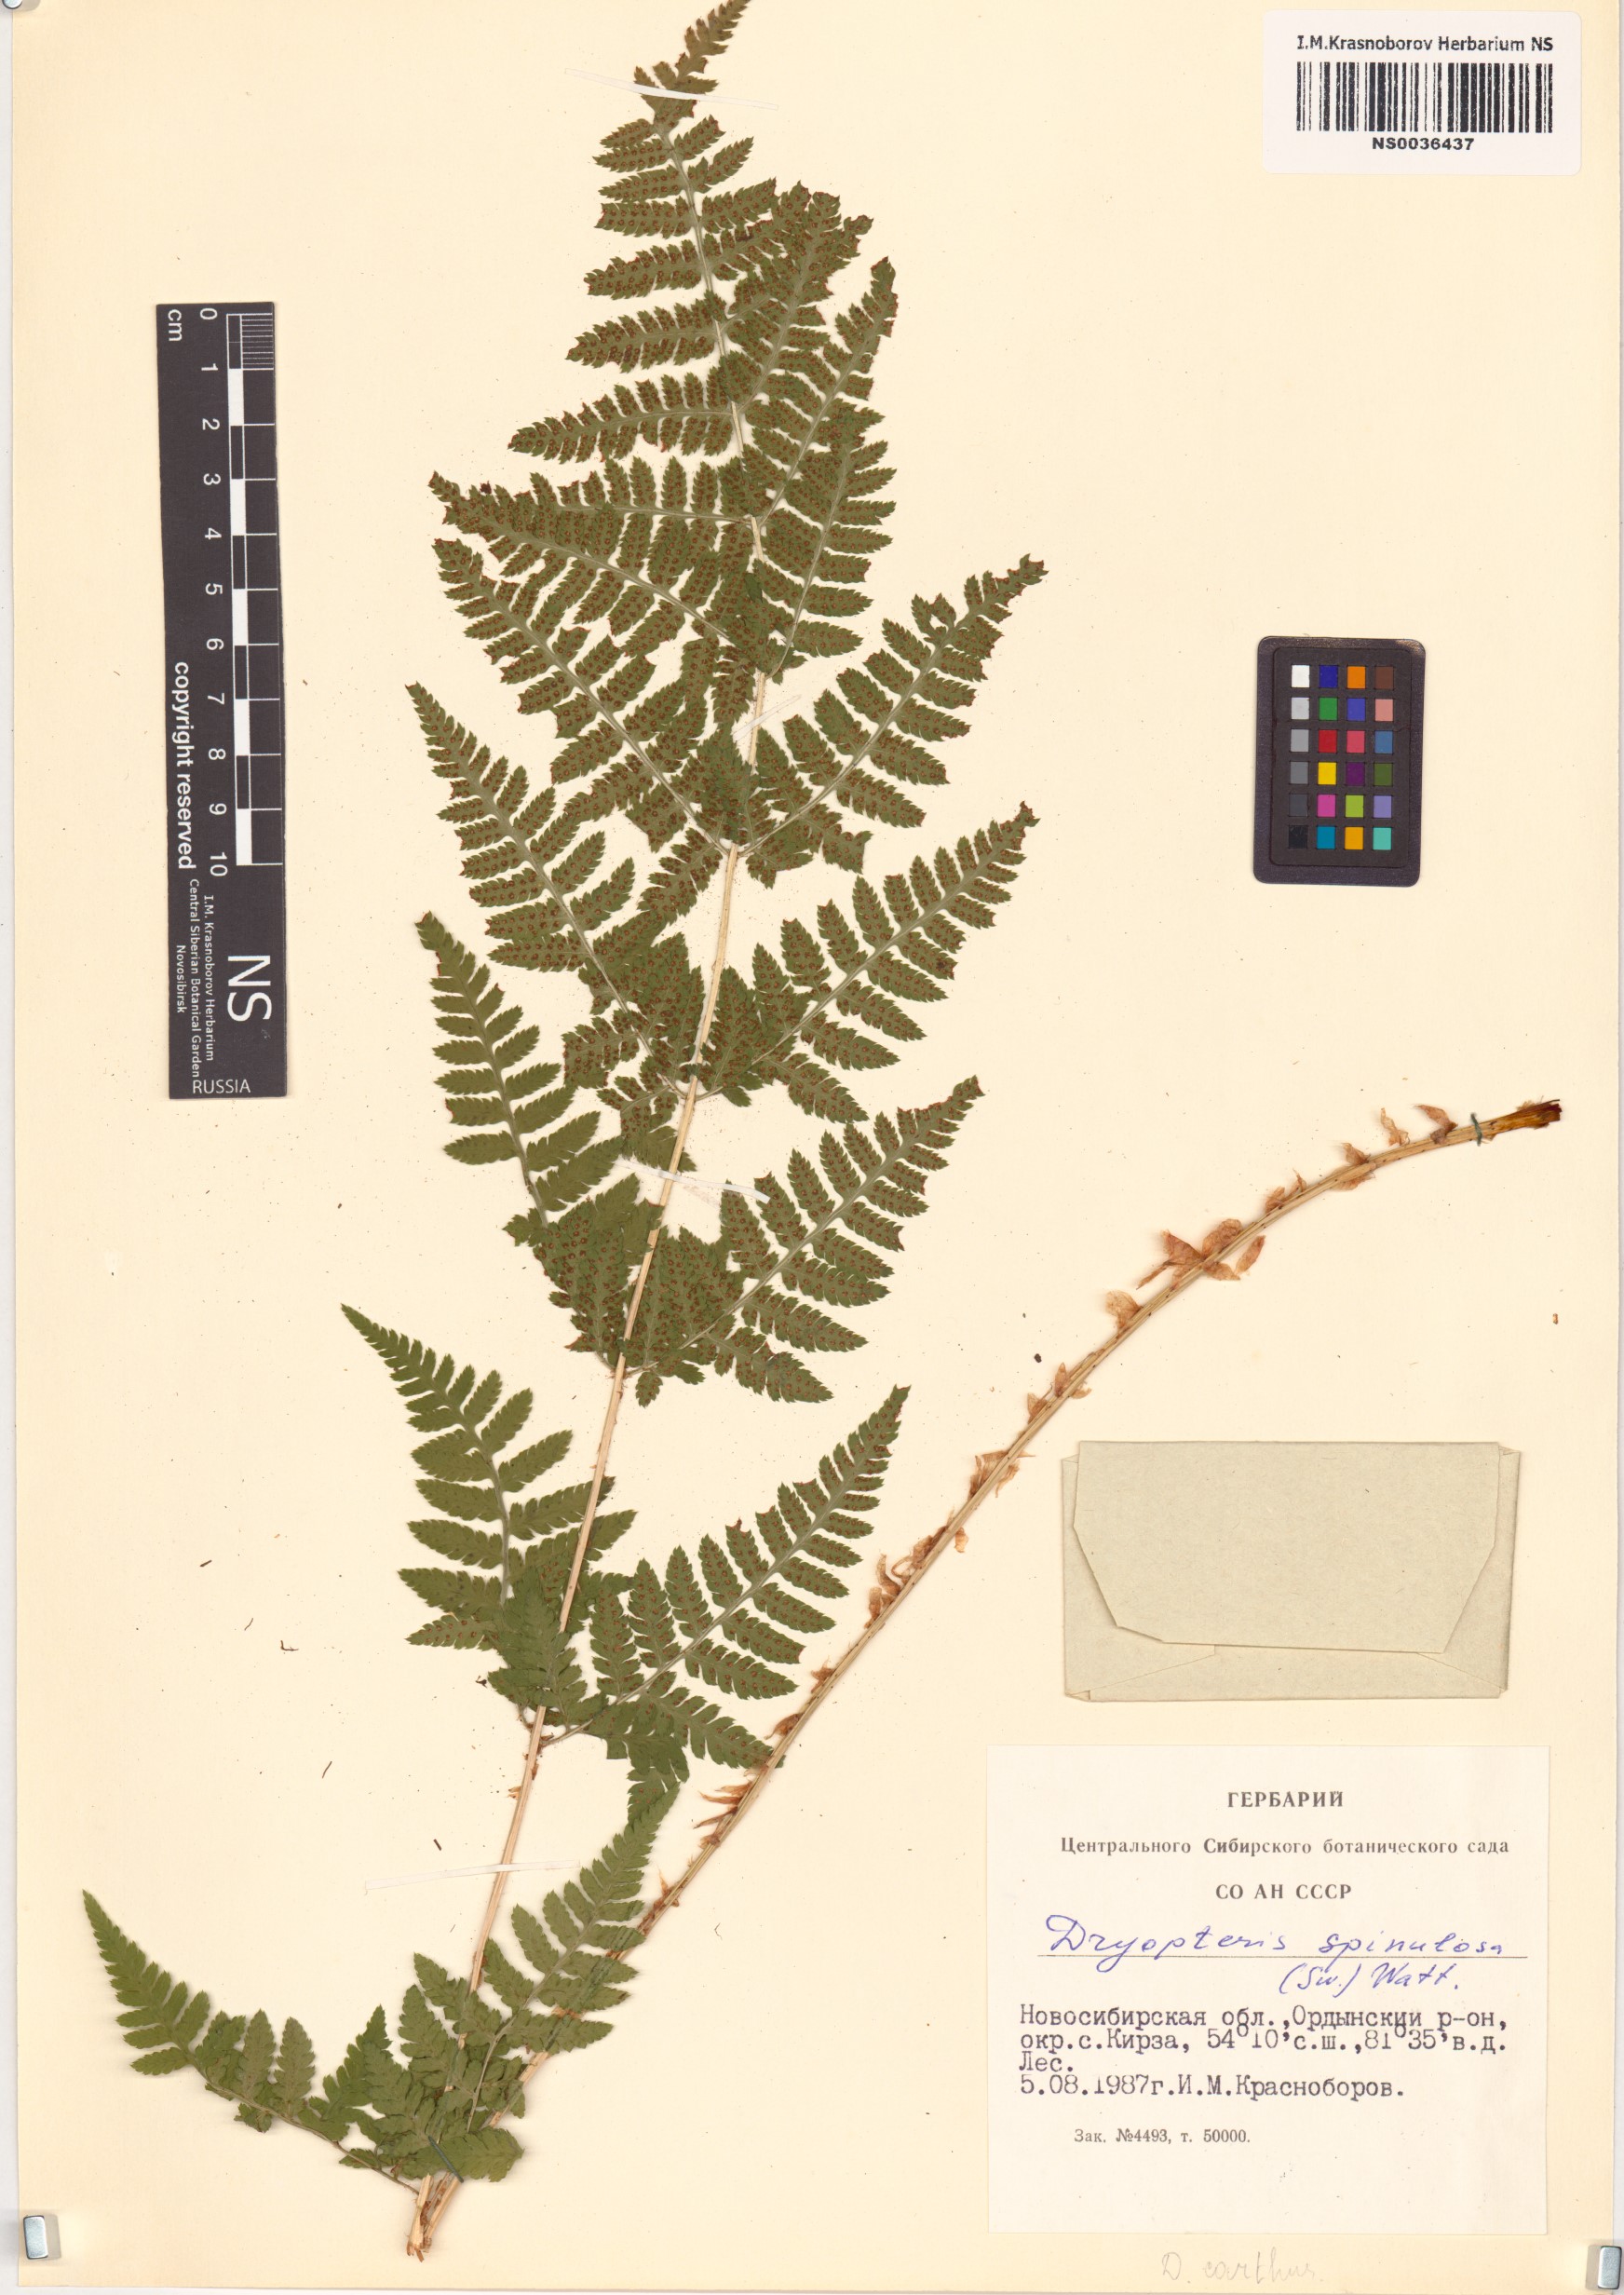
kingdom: Plantae
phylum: Tracheophyta
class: Polypodiopsida
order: Polypodiales
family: Dryopteridaceae
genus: Dryopteris
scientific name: Dryopteris carthusiana
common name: Narrow buckler-fern
